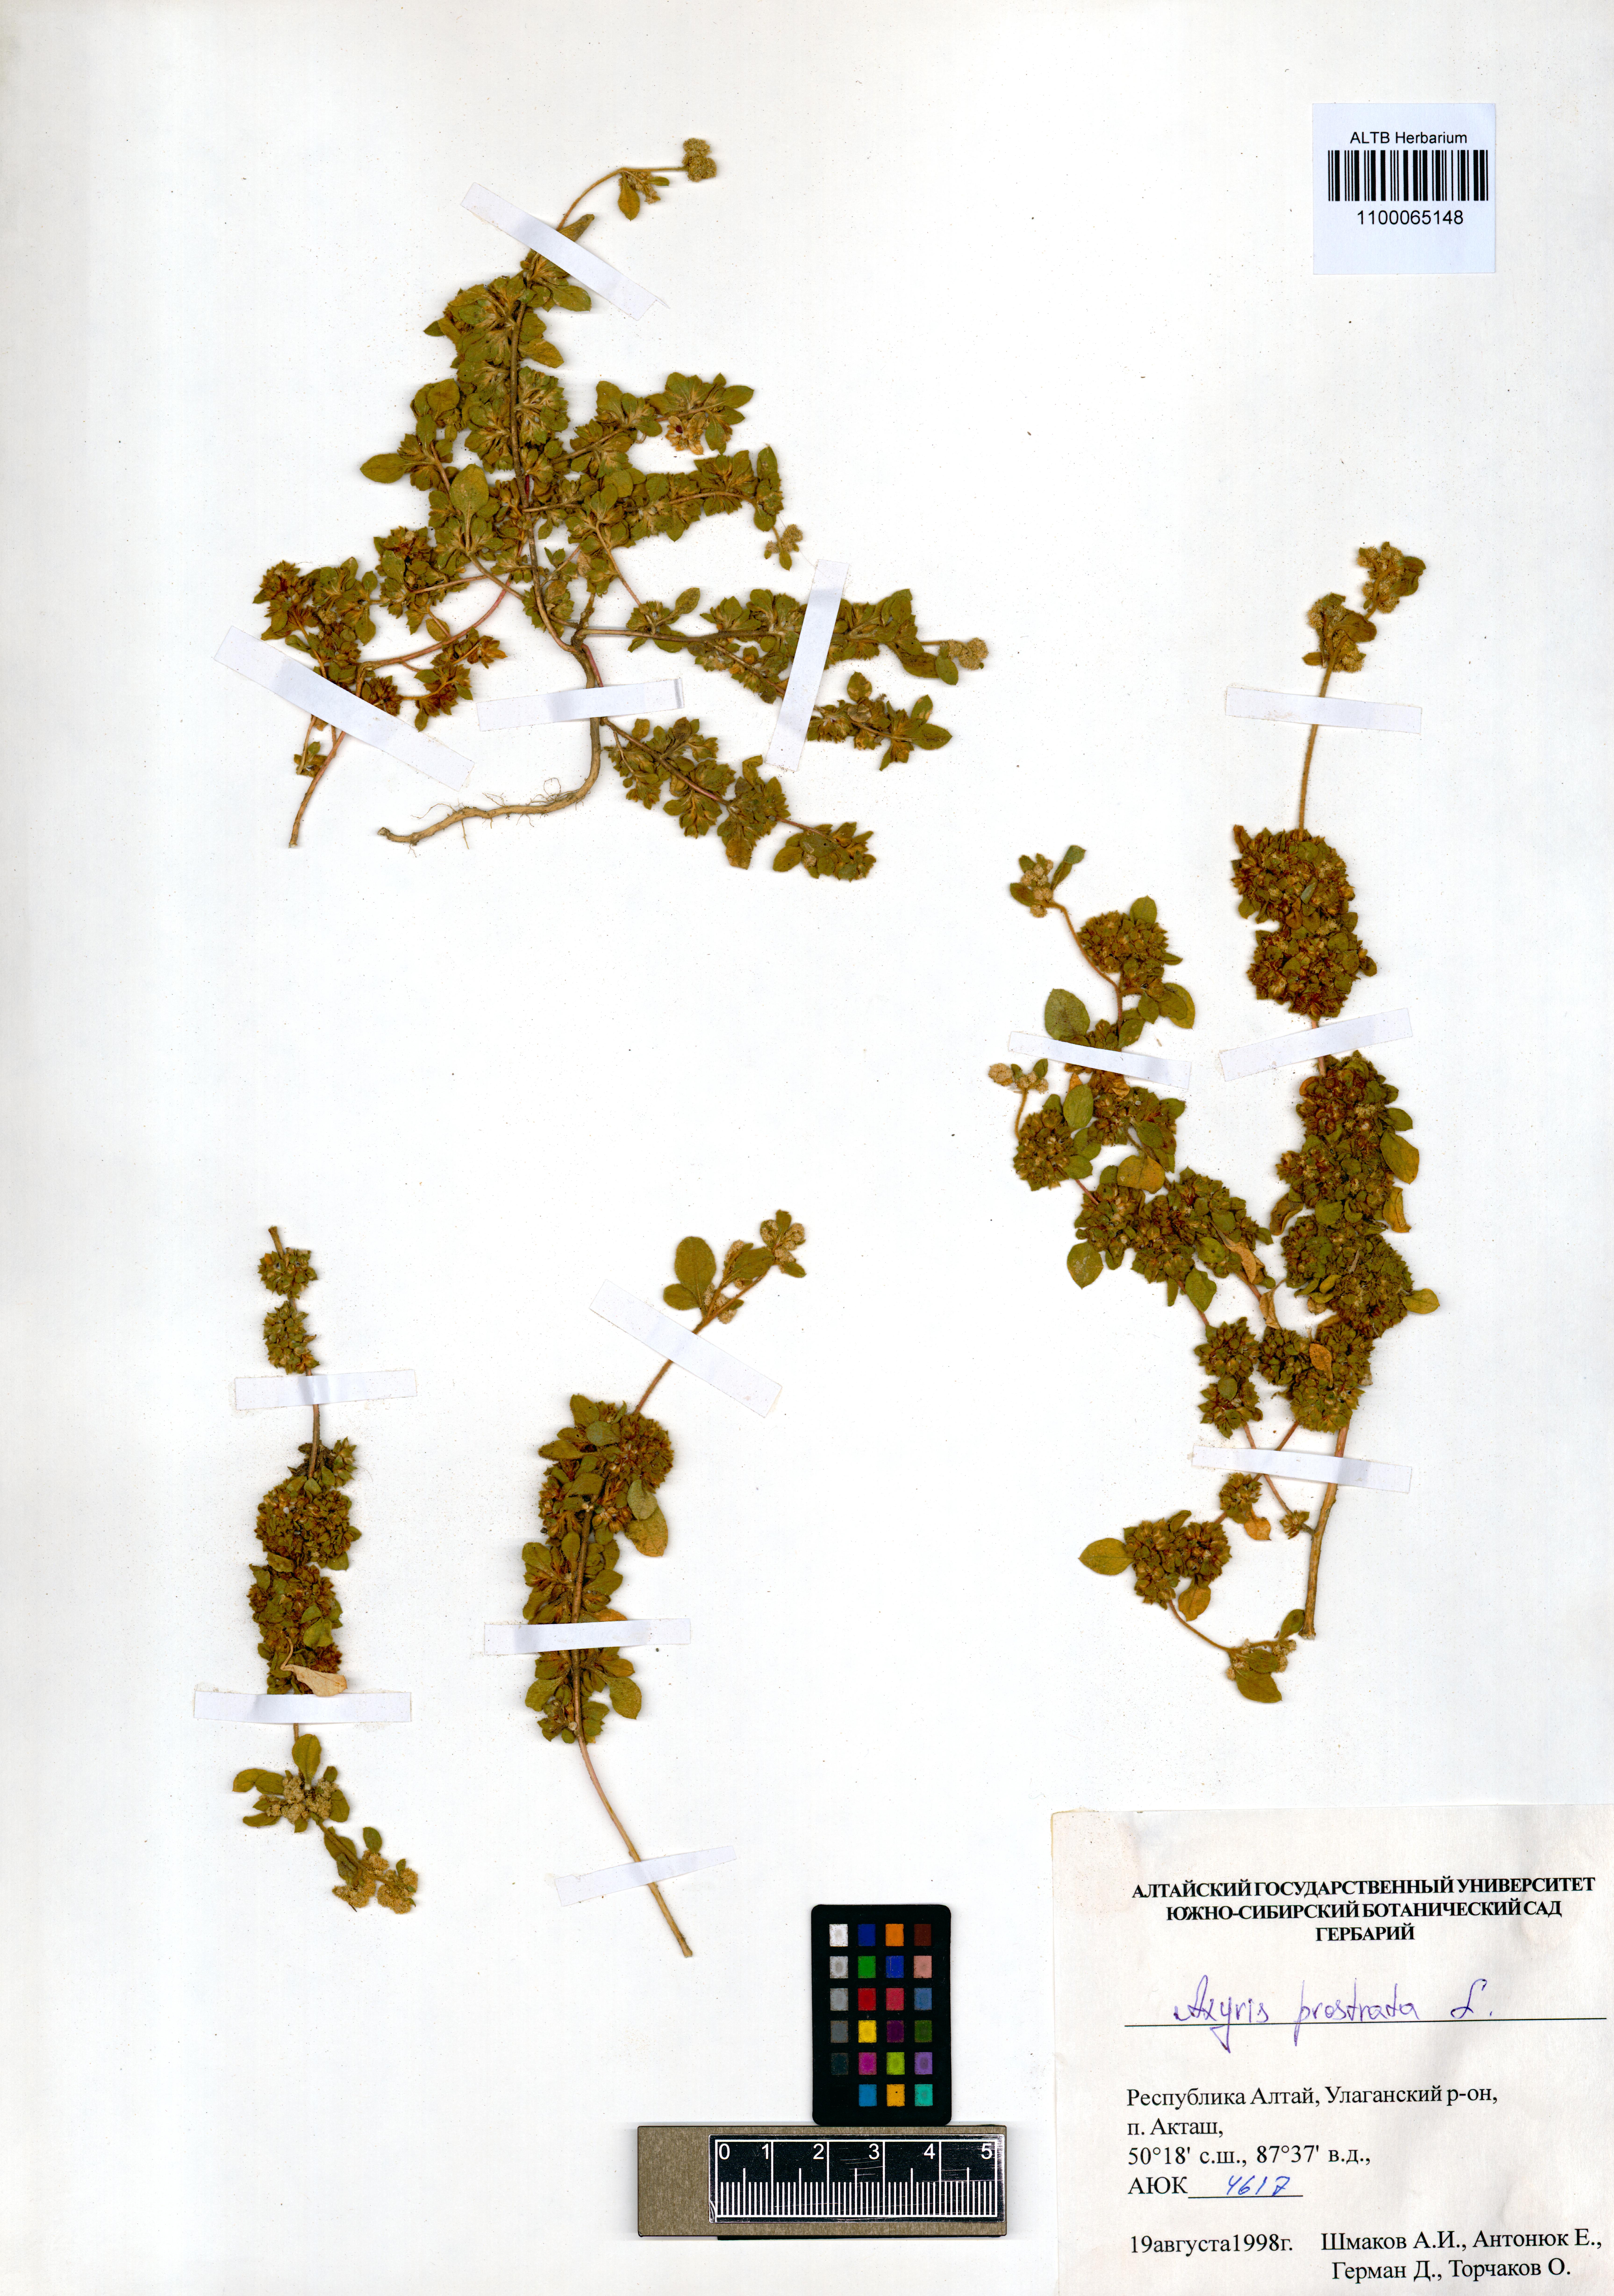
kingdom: Plantae
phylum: Tracheophyta
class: Magnoliopsida
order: Caryophyllales
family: Amaranthaceae
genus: Axyris
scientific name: Axyris prostrata
